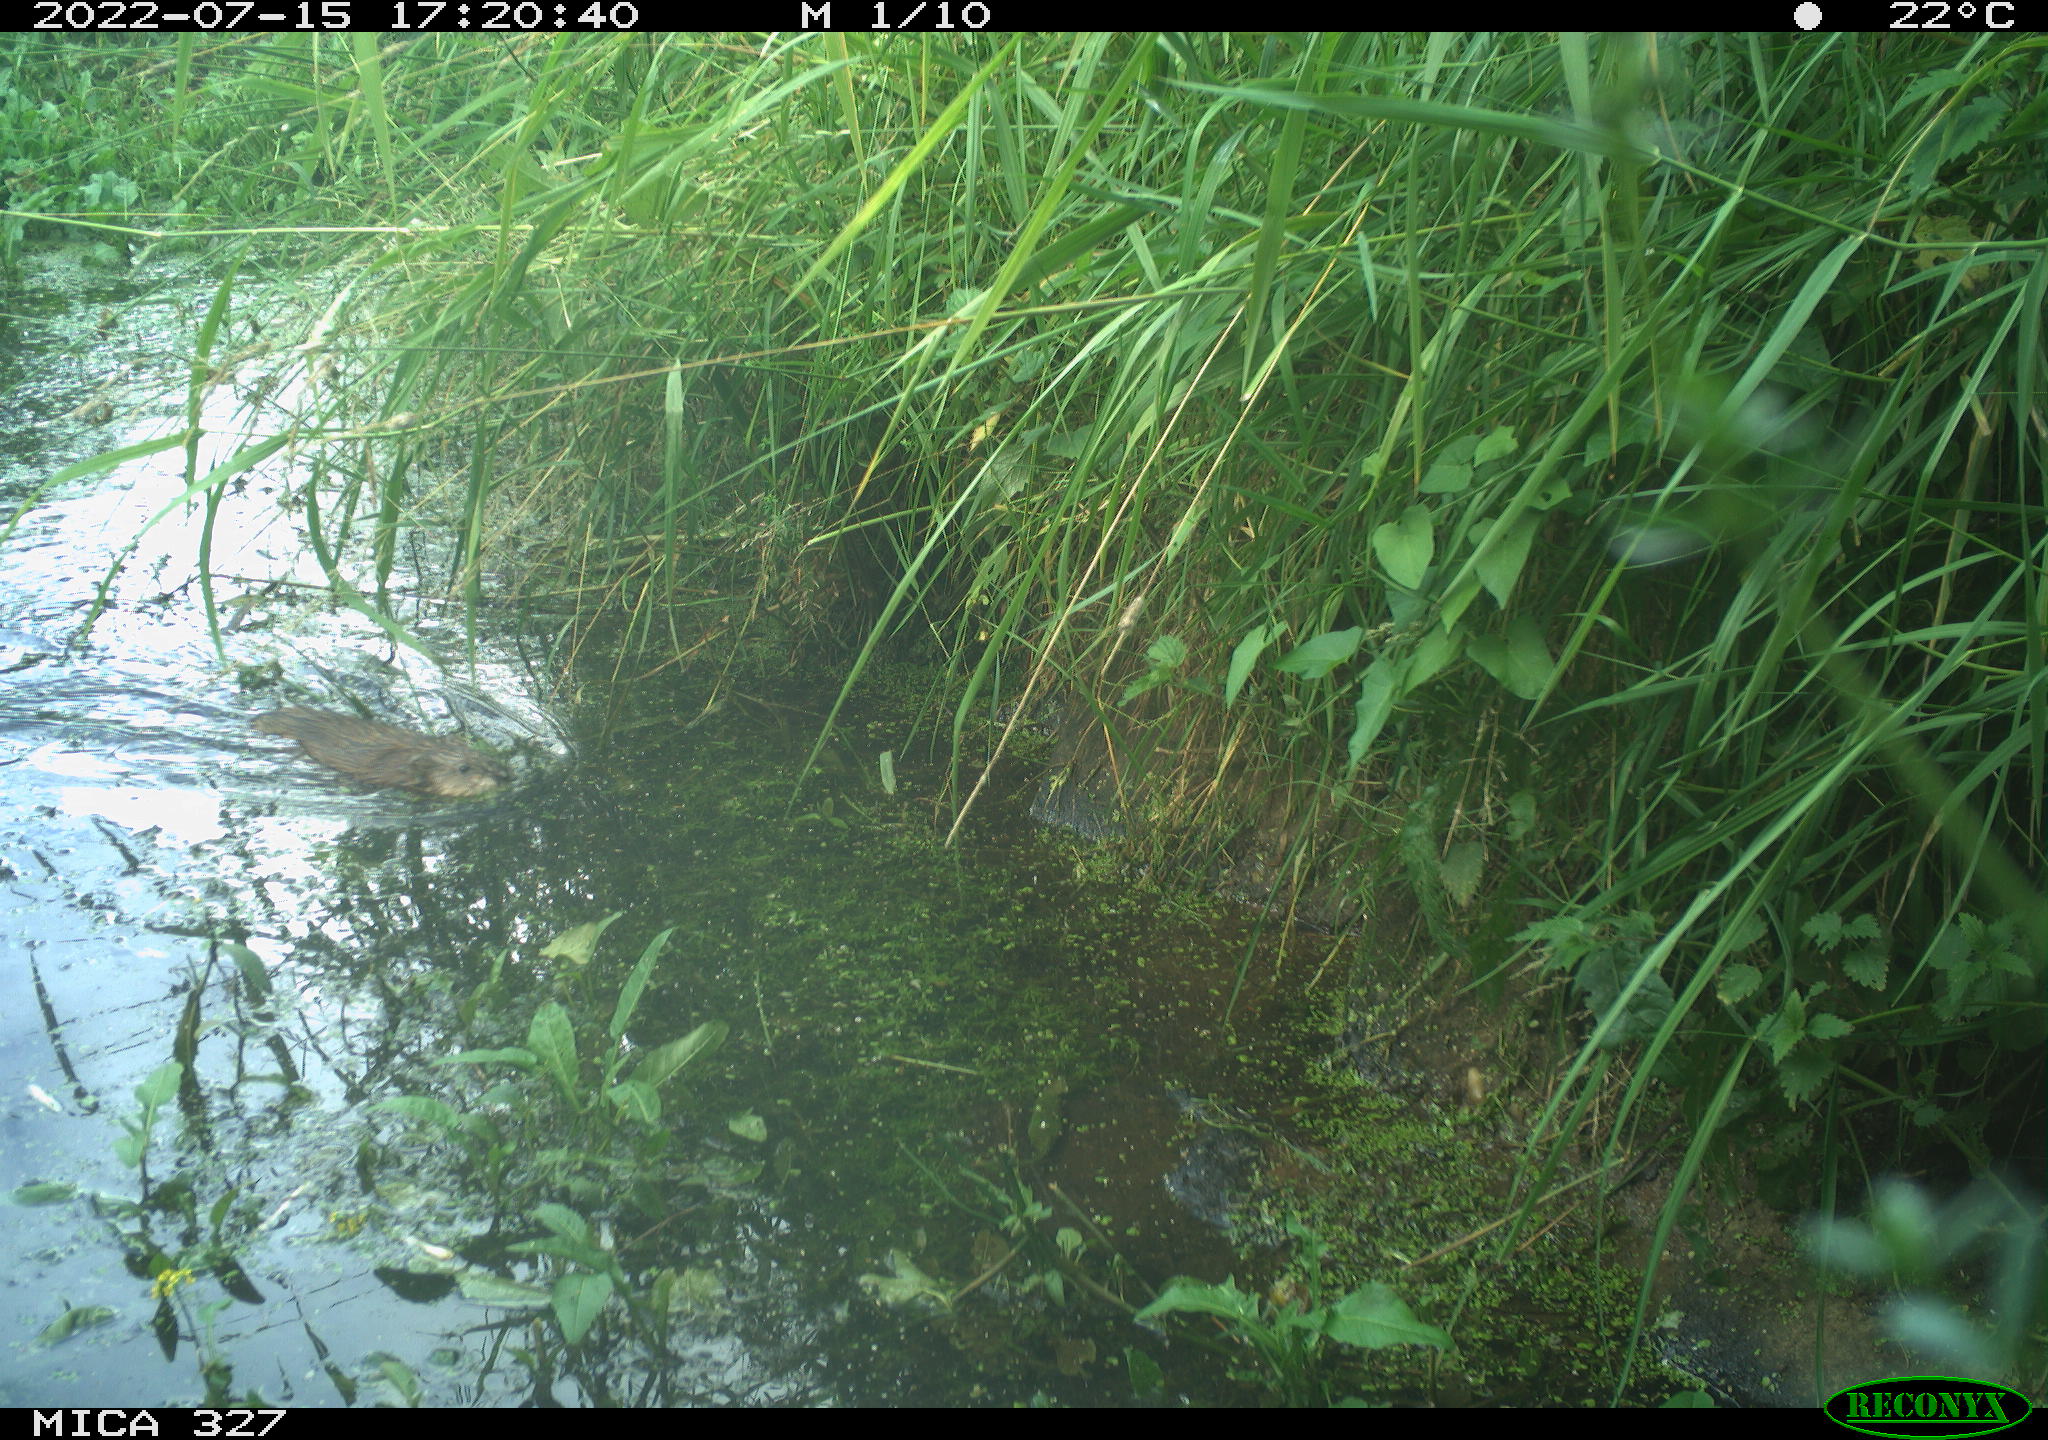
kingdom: Animalia
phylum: Chordata
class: Mammalia
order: Rodentia
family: Cricetidae
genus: Ondatra
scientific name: Ondatra zibethicus
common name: Muskrat
